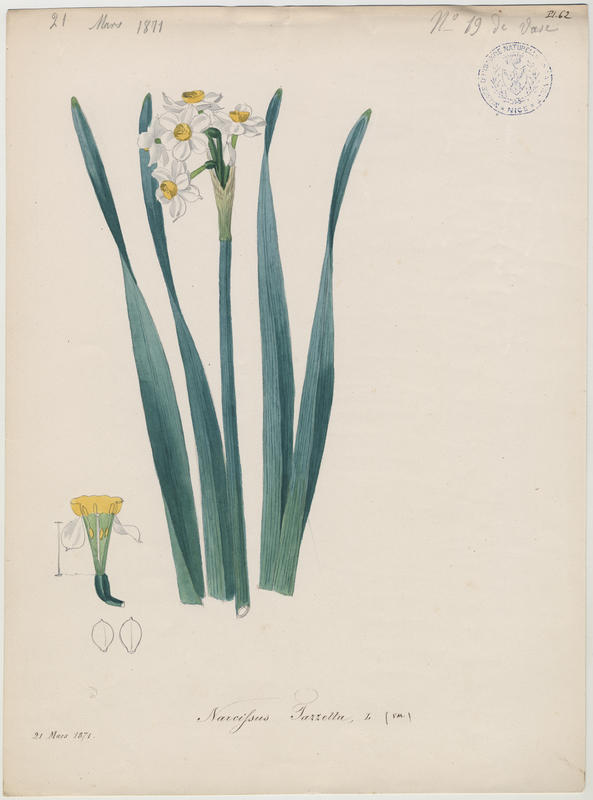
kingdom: Plantae
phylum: Tracheophyta
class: Liliopsida
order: Asparagales
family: Amaryllidaceae
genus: Narcissus
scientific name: Narcissus tazetta
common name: Bunch-flowered daffodil
